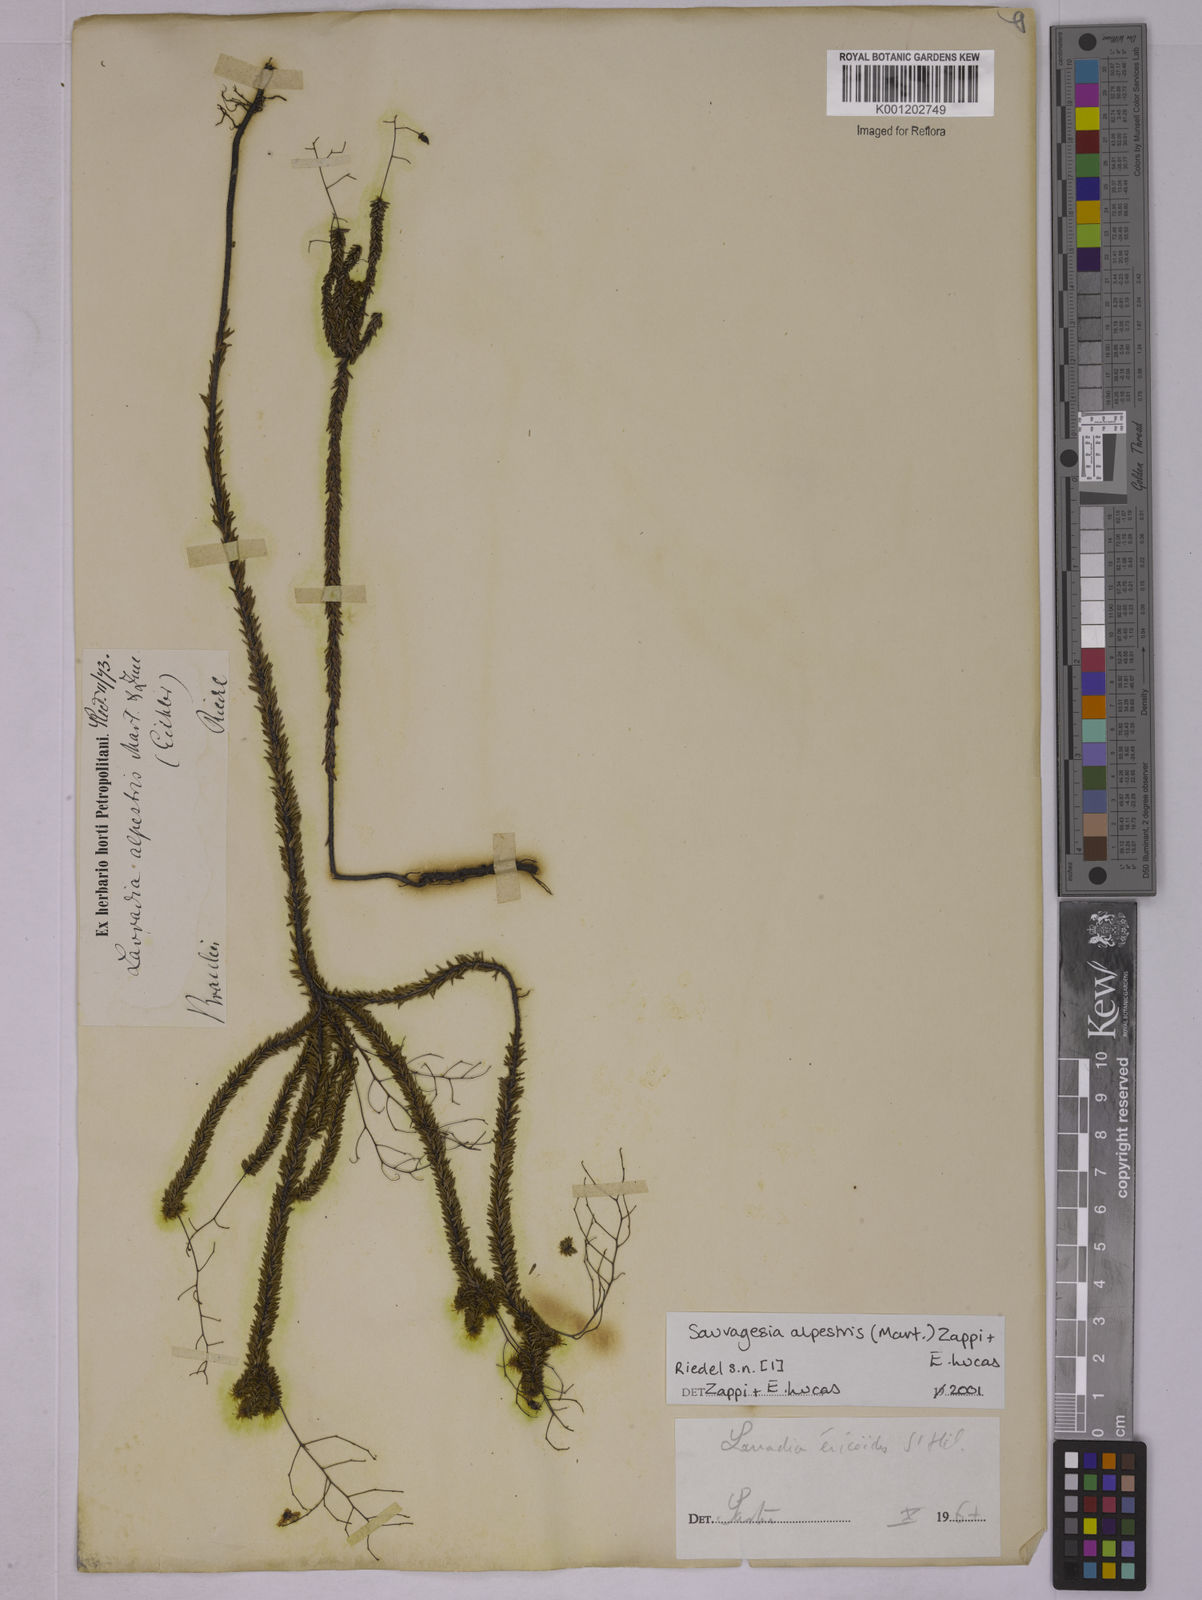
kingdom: Plantae
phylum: Tracheophyta
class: Magnoliopsida
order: Malpighiales
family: Ochnaceae
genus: Sauvagesia
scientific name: Sauvagesia alpestris
